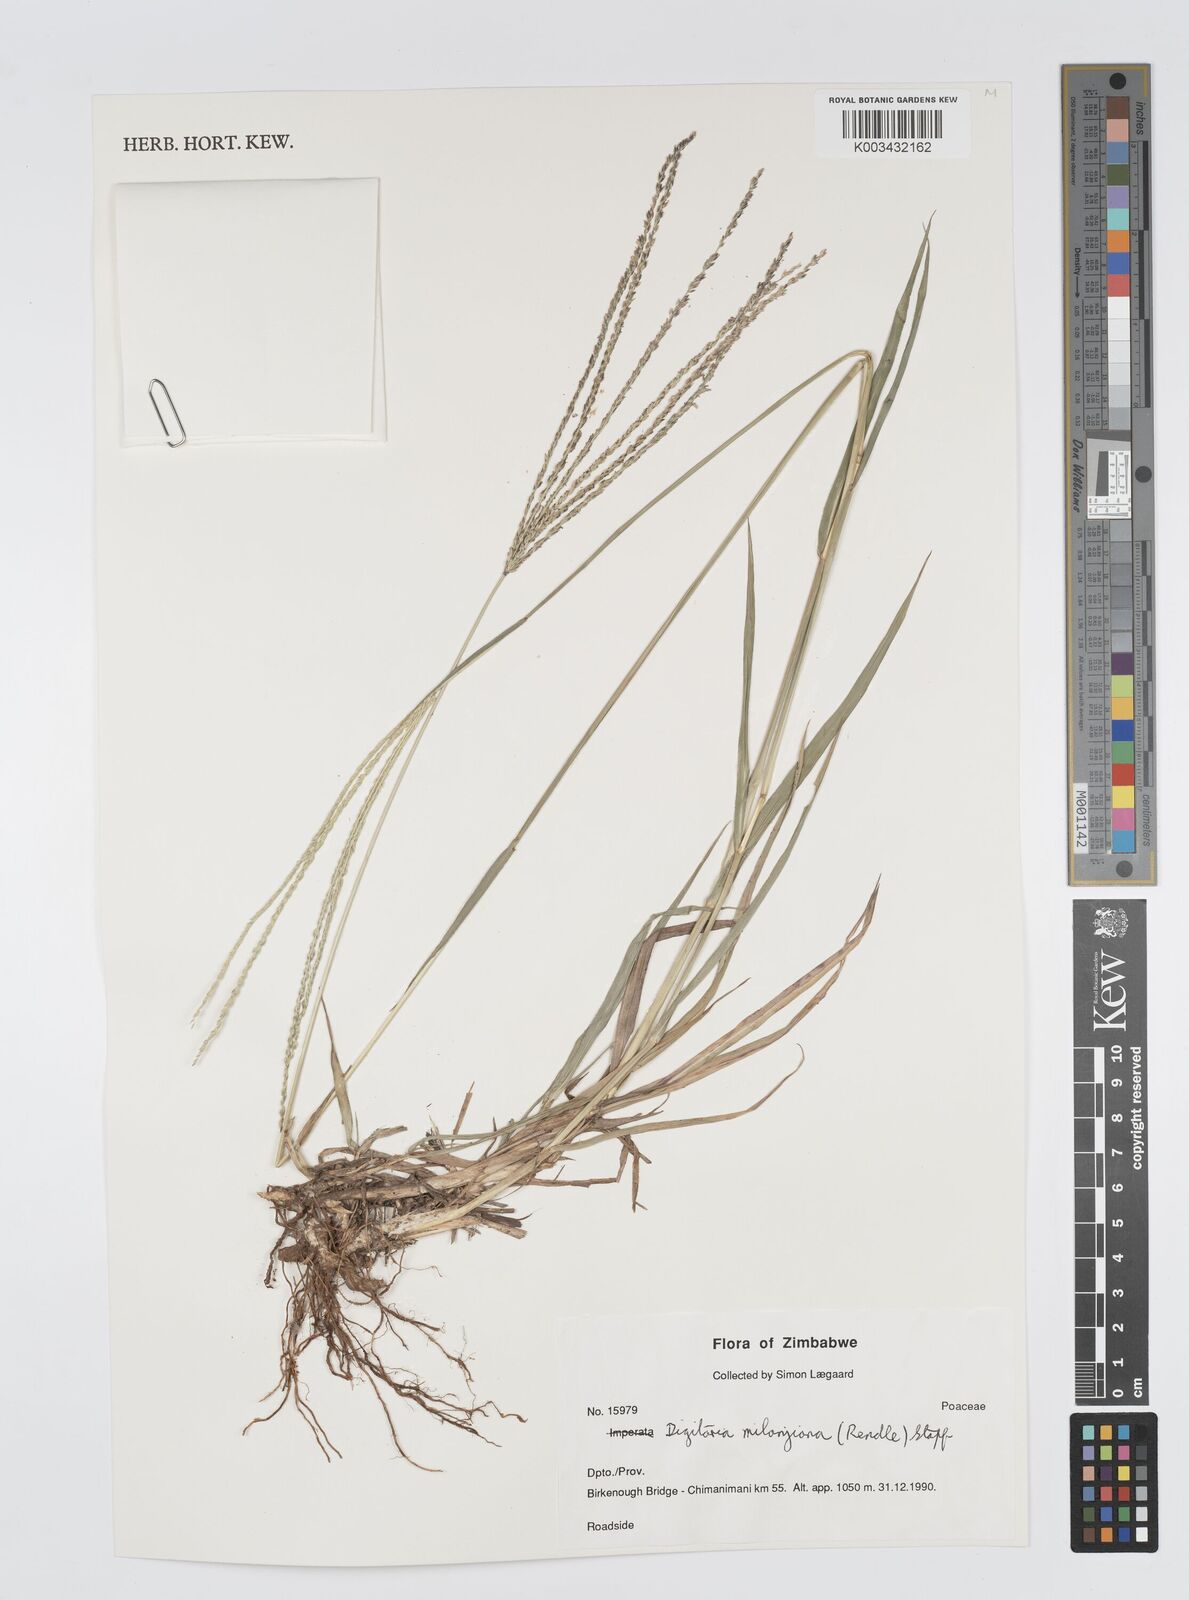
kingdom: Plantae
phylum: Tracheophyta
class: Liliopsida
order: Poales
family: Poaceae
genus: Digitaria
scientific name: Digitaria milanjiana
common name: Madagascar crabgrass
